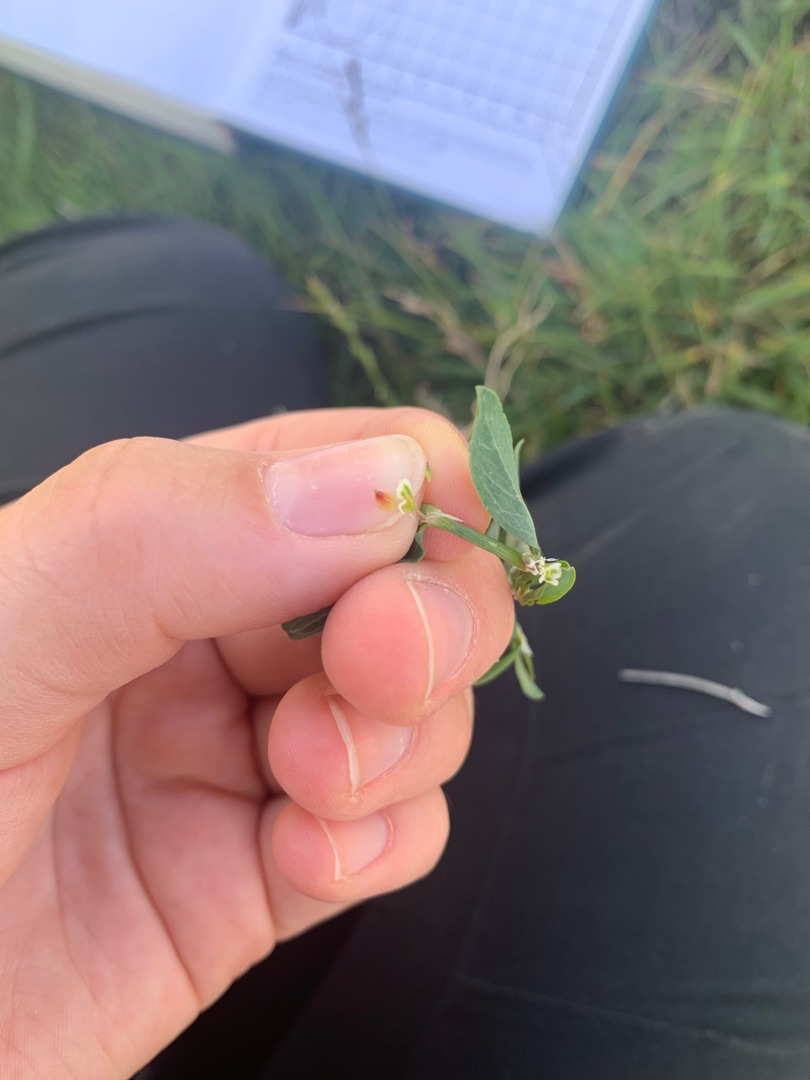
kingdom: Plantae
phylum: Tracheophyta
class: Magnoliopsida
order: Caryophyllales
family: Polygonaceae
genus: Polygonum
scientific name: Polygonum arenastrum
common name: Liggende vej-pileurt
